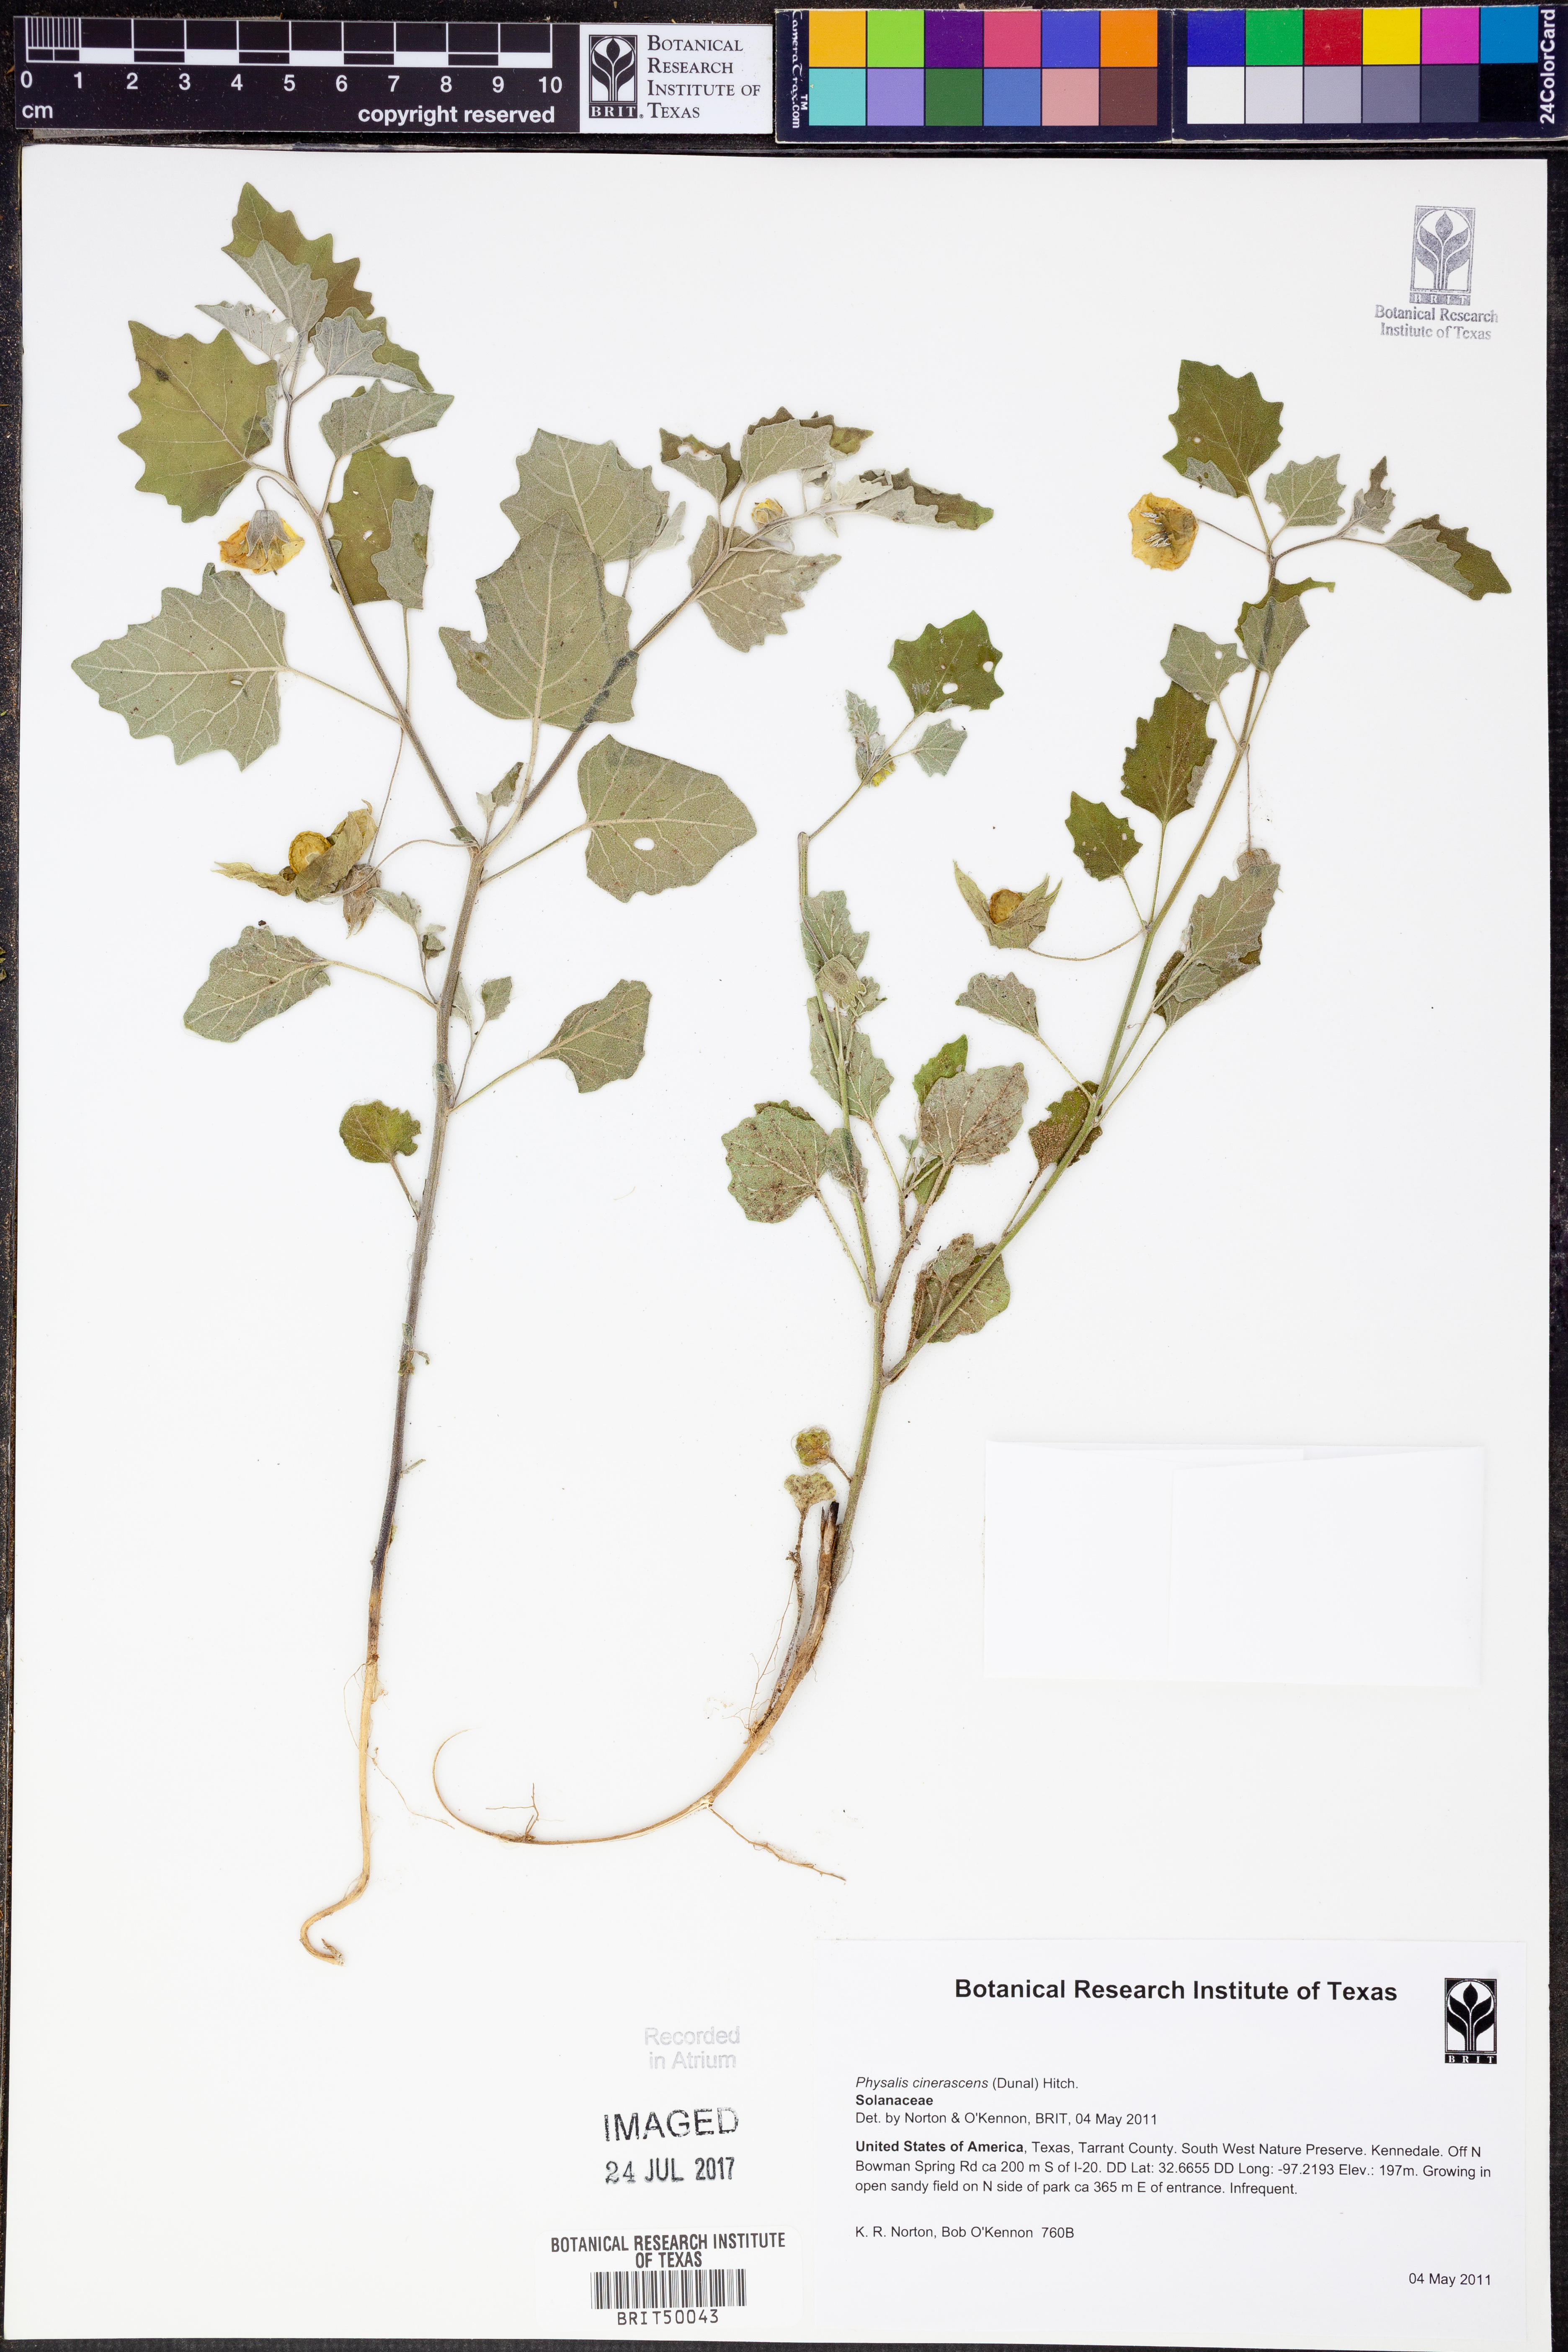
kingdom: Plantae
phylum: Tracheophyta
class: Magnoliopsida
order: Solanales
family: Solanaceae
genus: Physalis
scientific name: Physalis cinerascens
